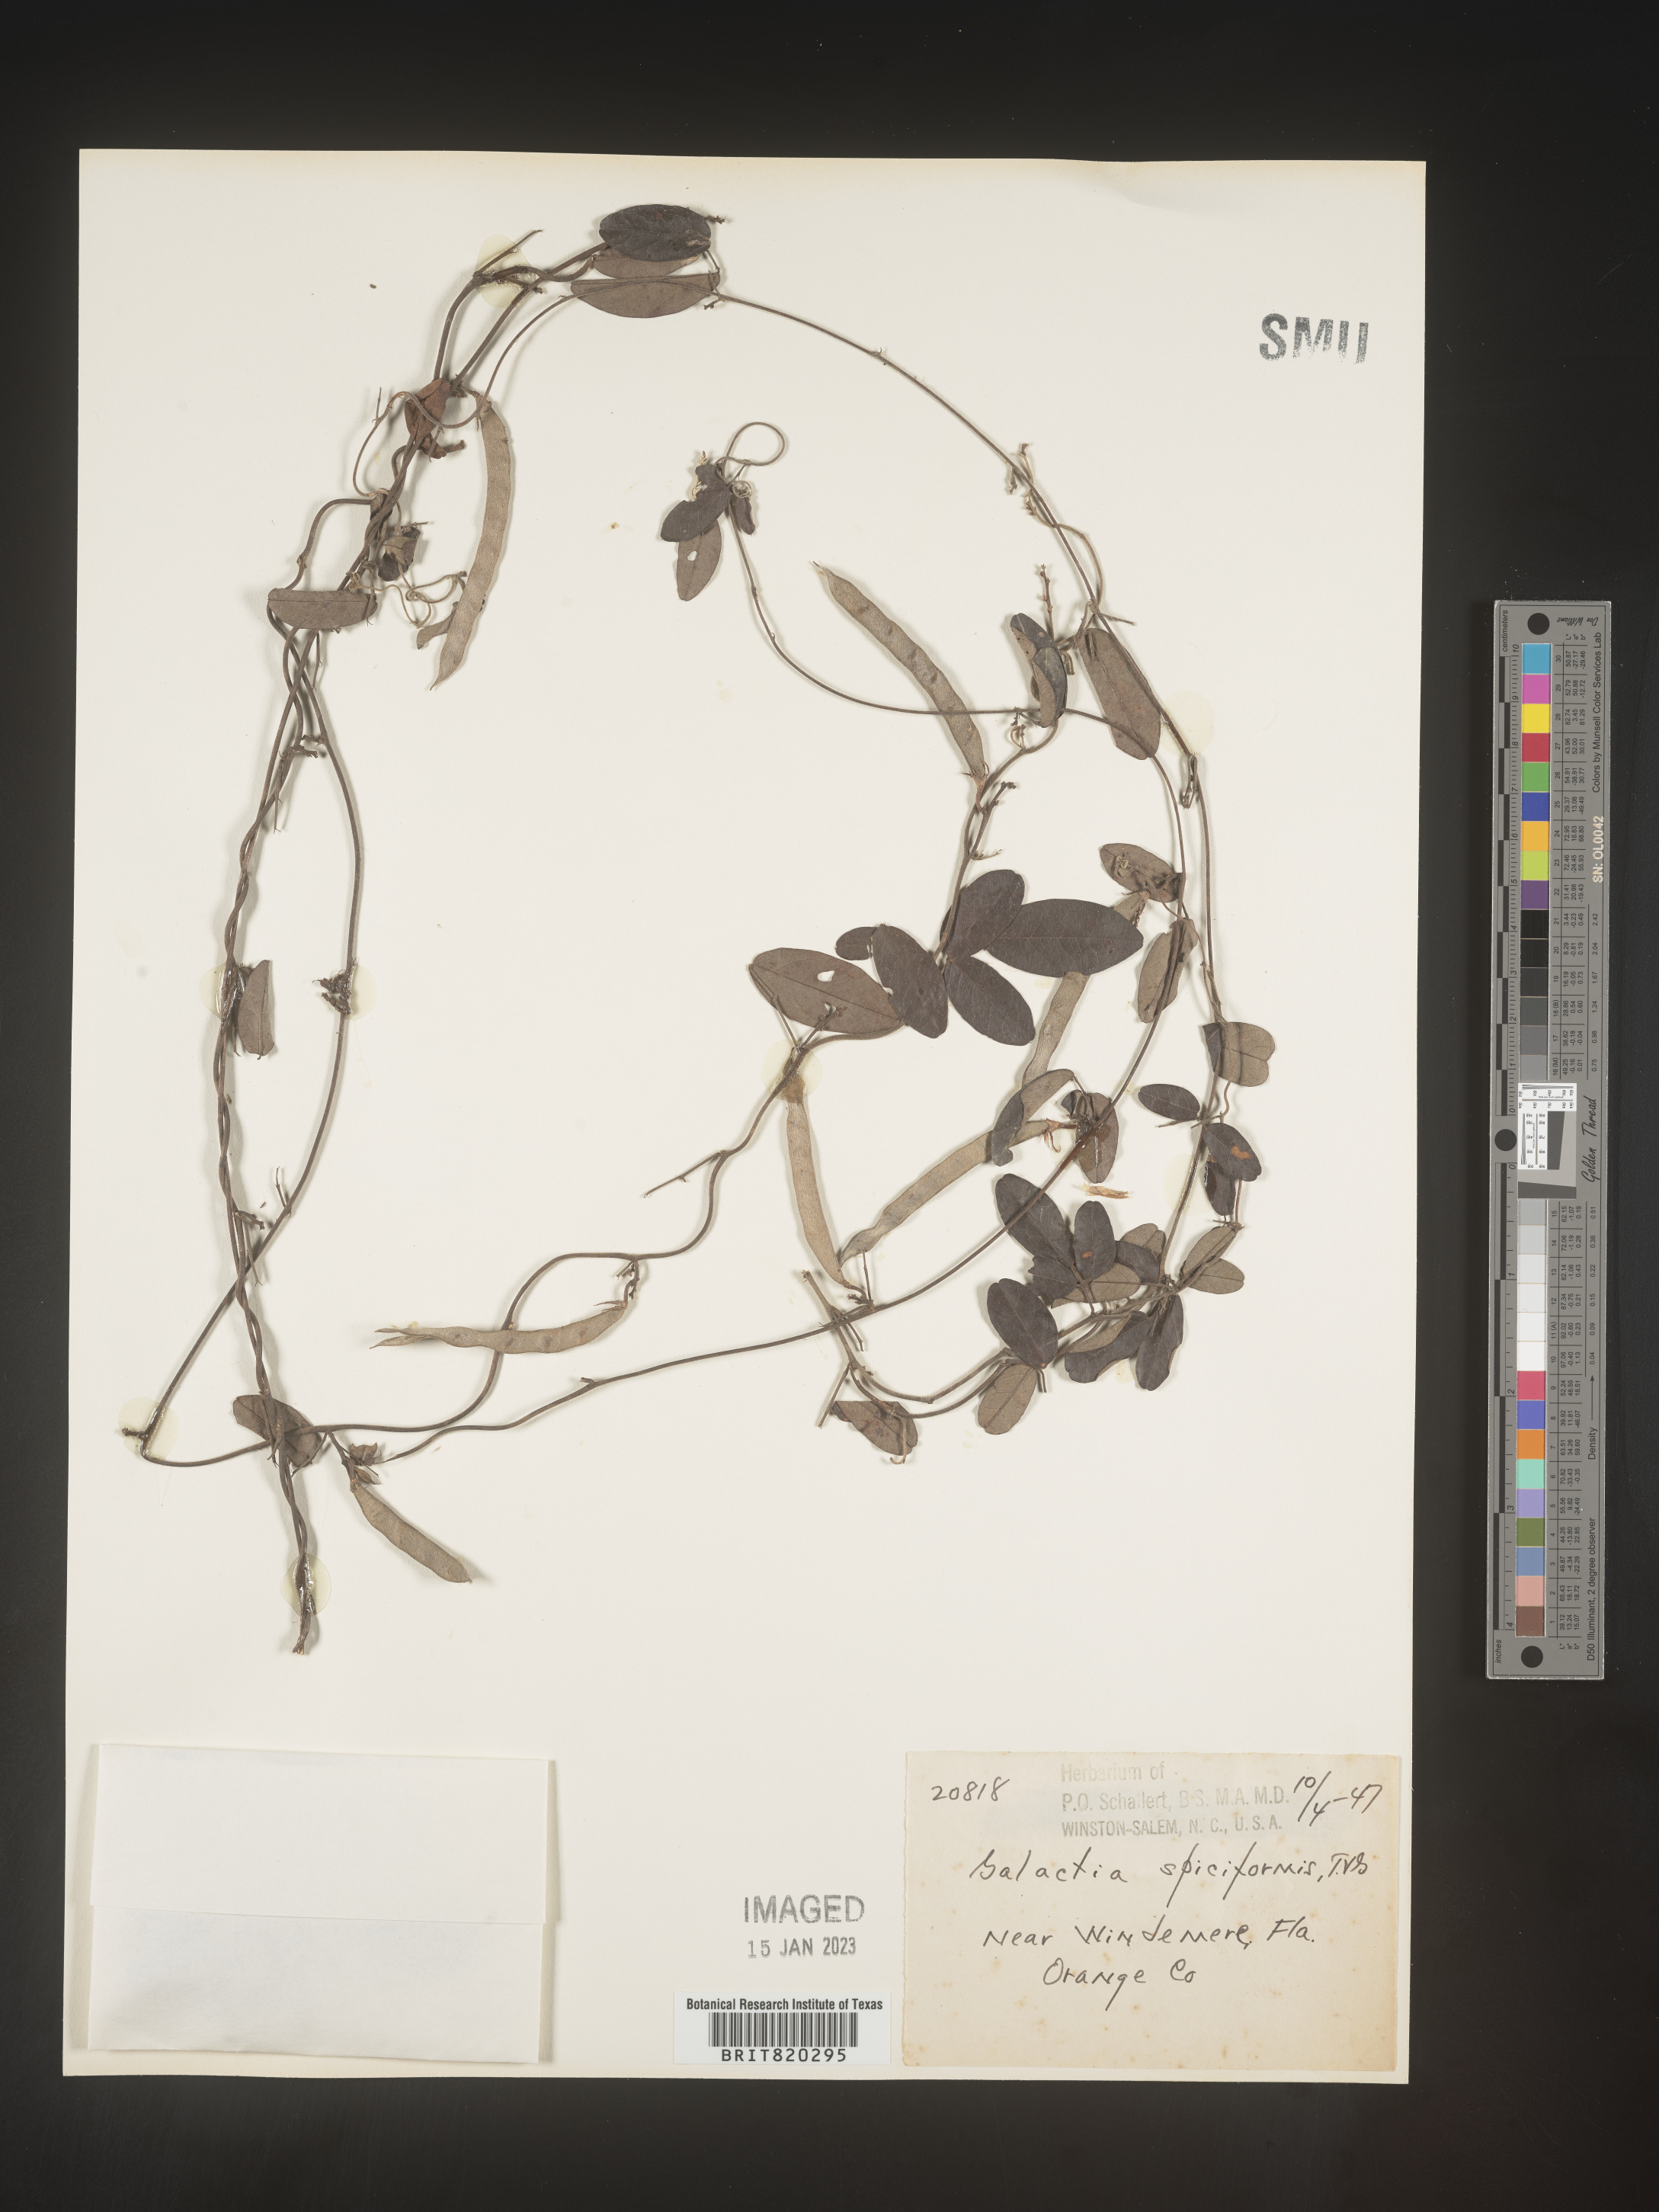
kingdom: Plantae
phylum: Tracheophyta
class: Magnoliopsida
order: Fabales
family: Fabaceae
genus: Galactia
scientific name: Galactia floridana
